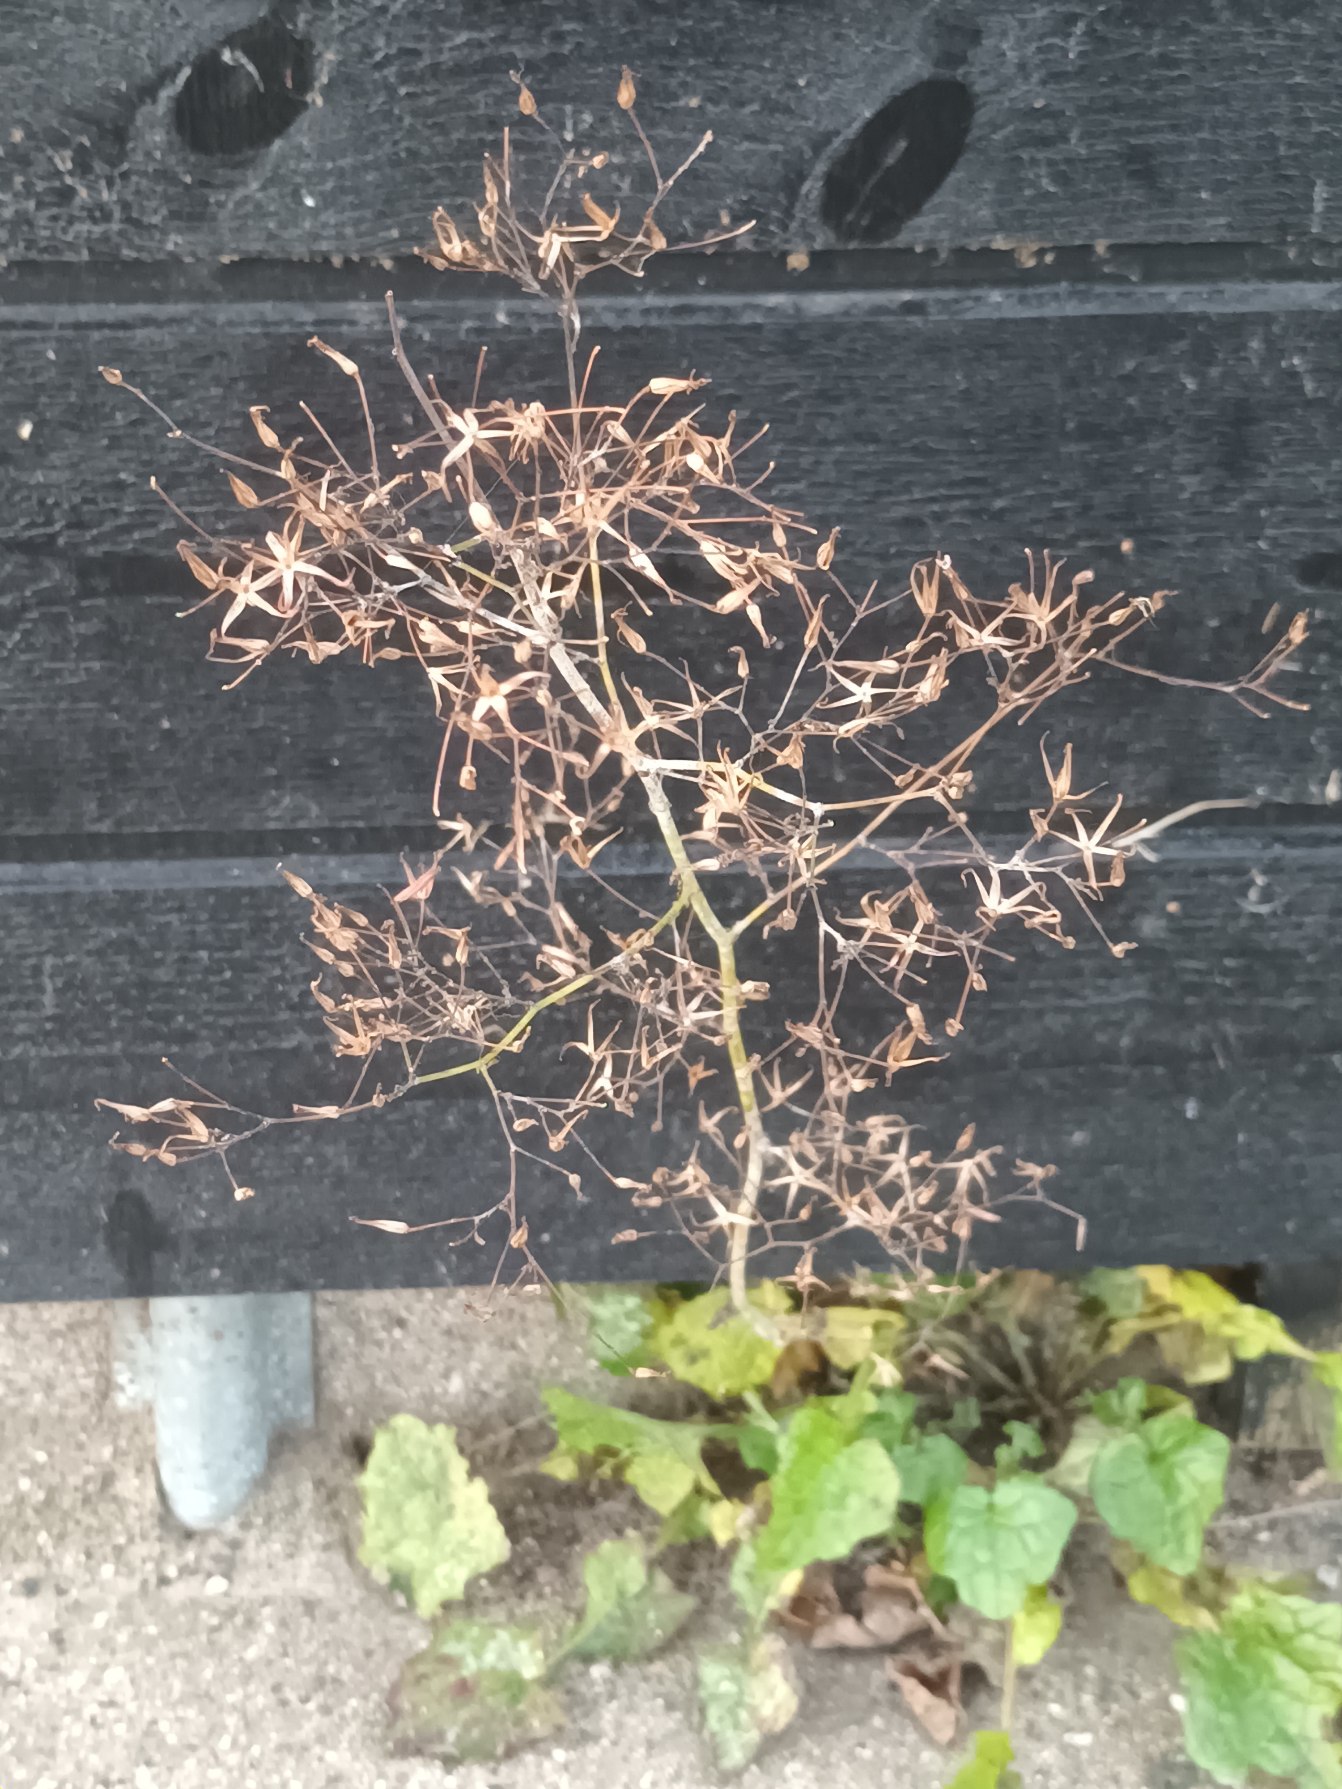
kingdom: Plantae
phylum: Tracheophyta
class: Magnoliopsida
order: Asterales
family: Asteraceae
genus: Mycelis
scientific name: Mycelis muralis
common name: Skov-salat
